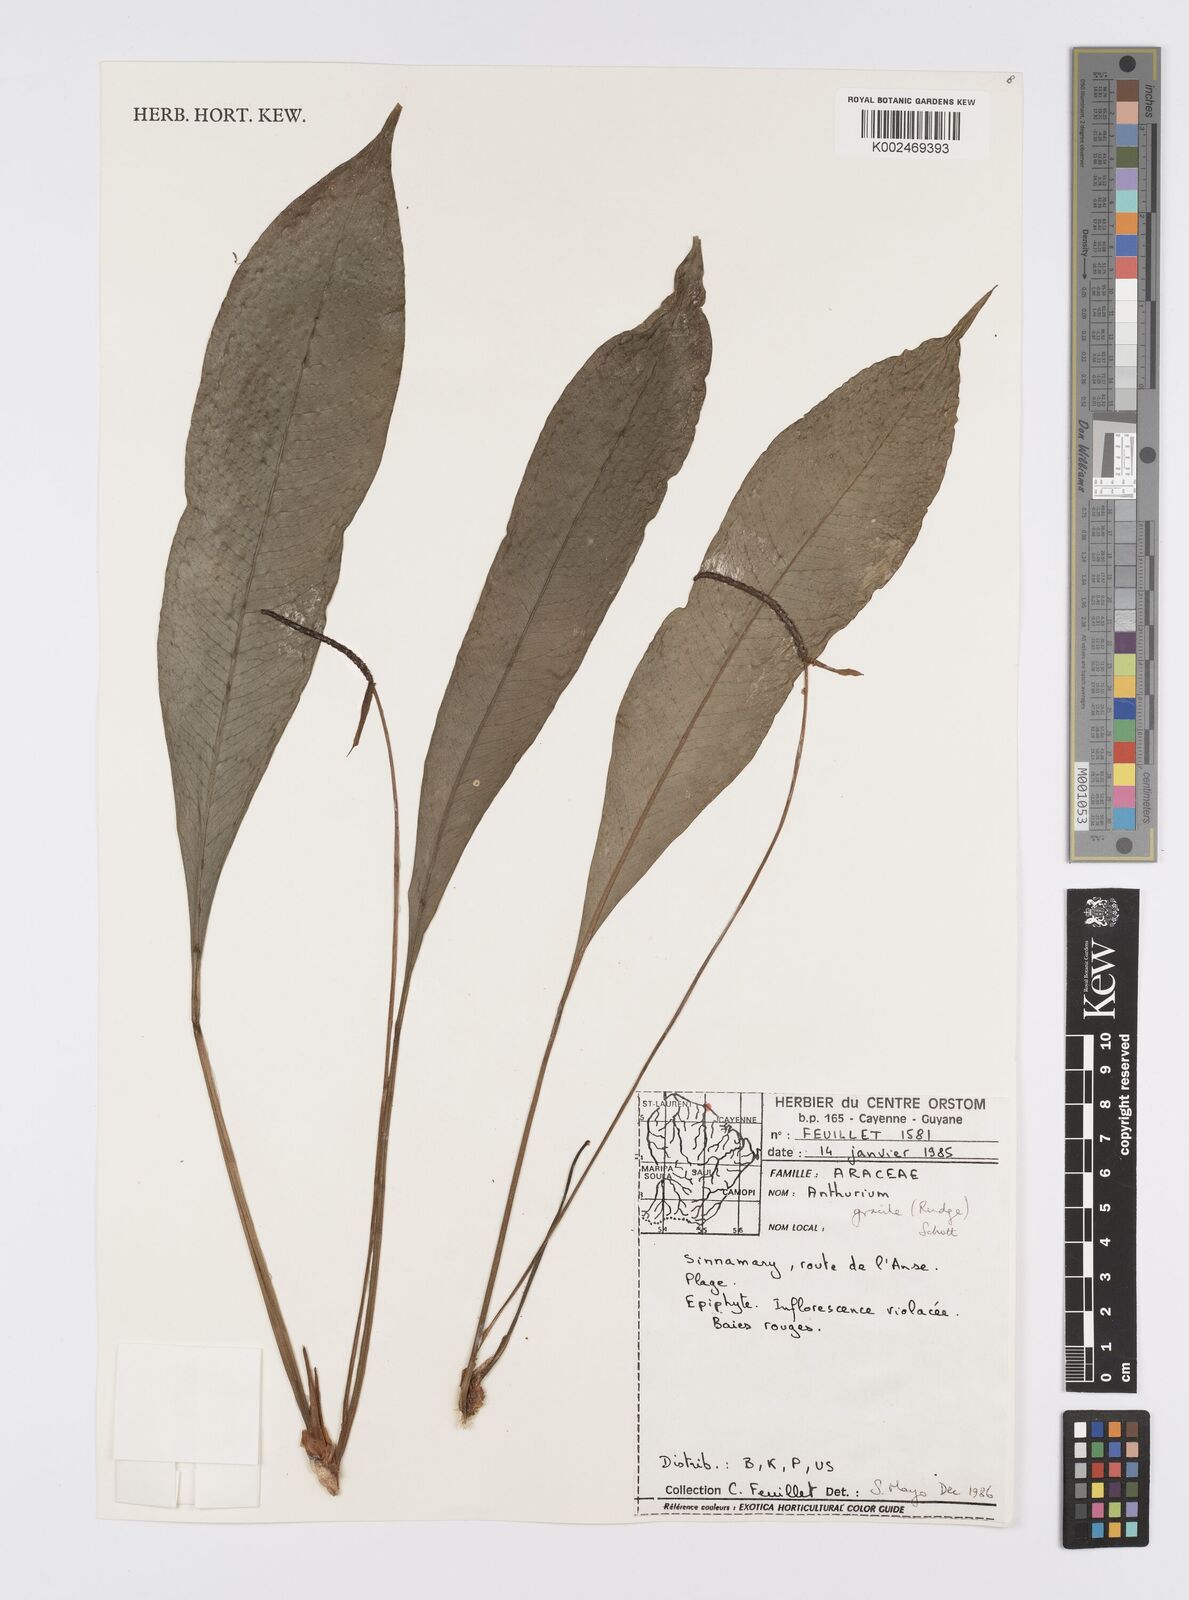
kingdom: Plantae
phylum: Tracheophyta
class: Liliopsida
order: Alismatales
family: Araceae
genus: Anthurium
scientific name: Anthurium gracile
